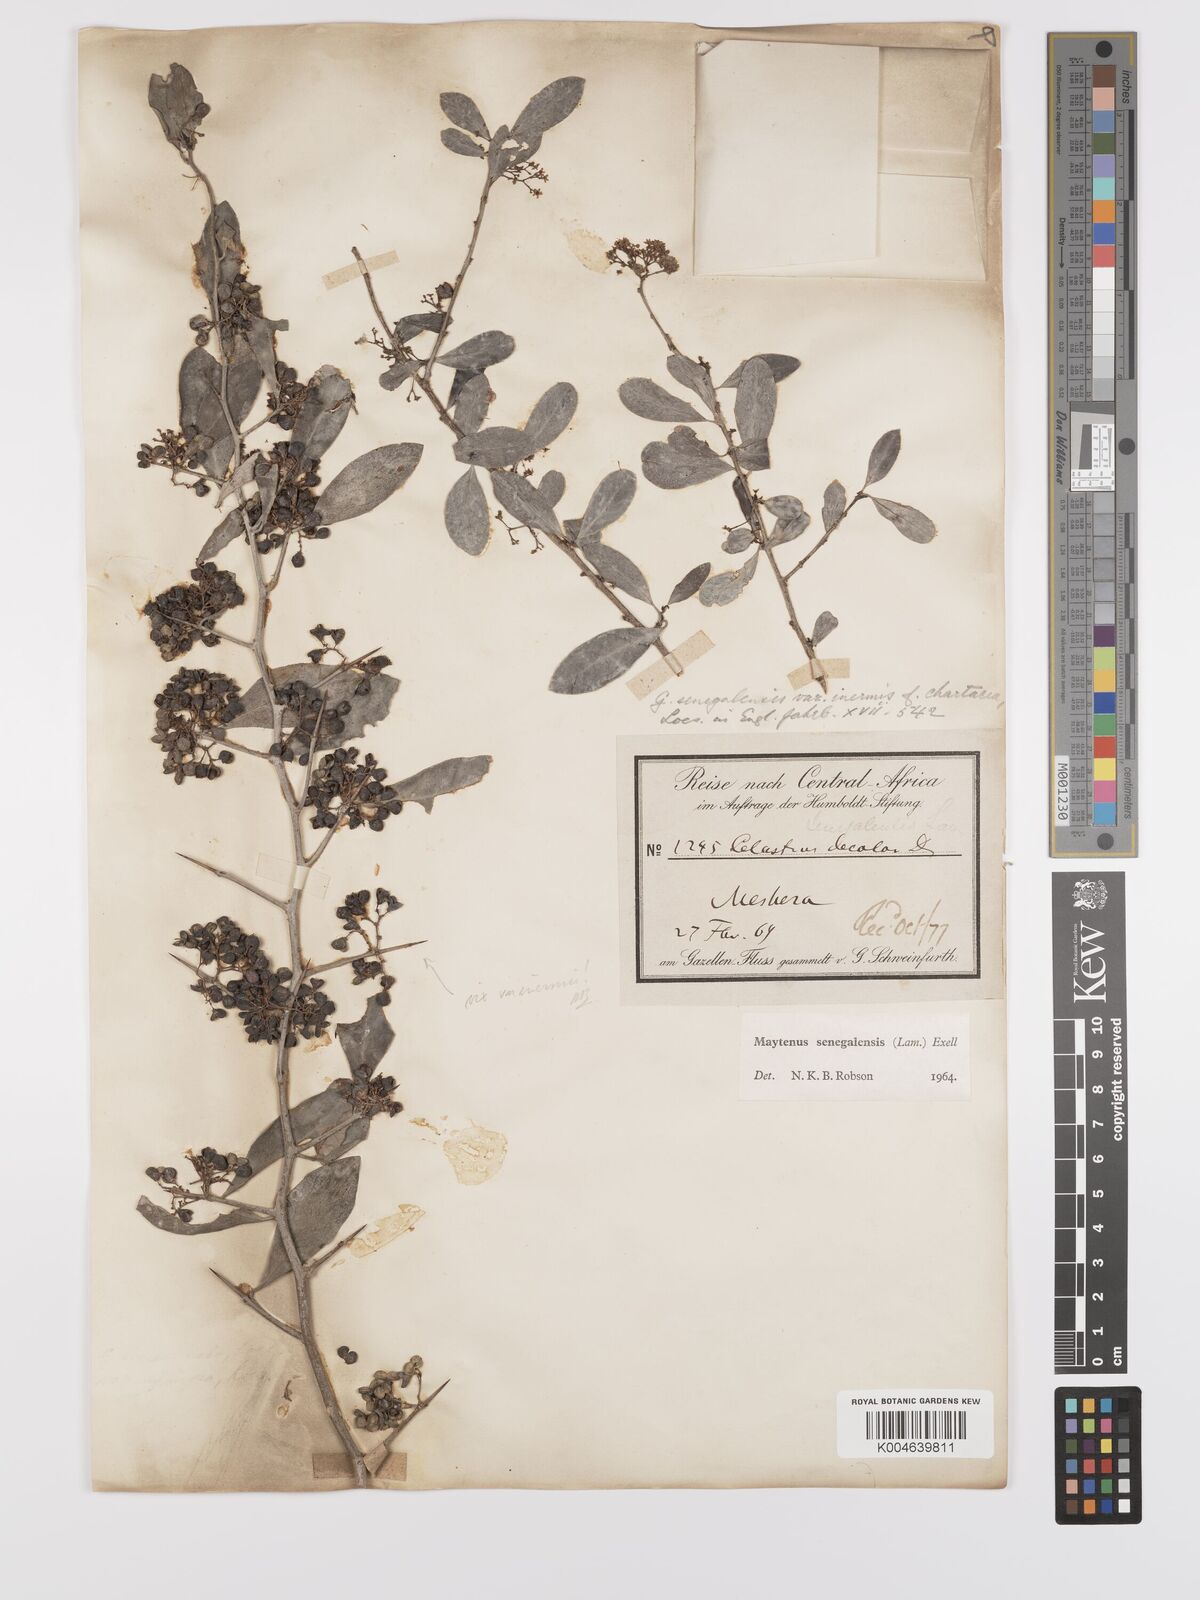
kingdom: Plantae
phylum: Tracheophyta
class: Magnoliopsida
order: Celastrales
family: Celastraceae
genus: Gymnosporia
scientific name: Gymnosporia senegalensis
